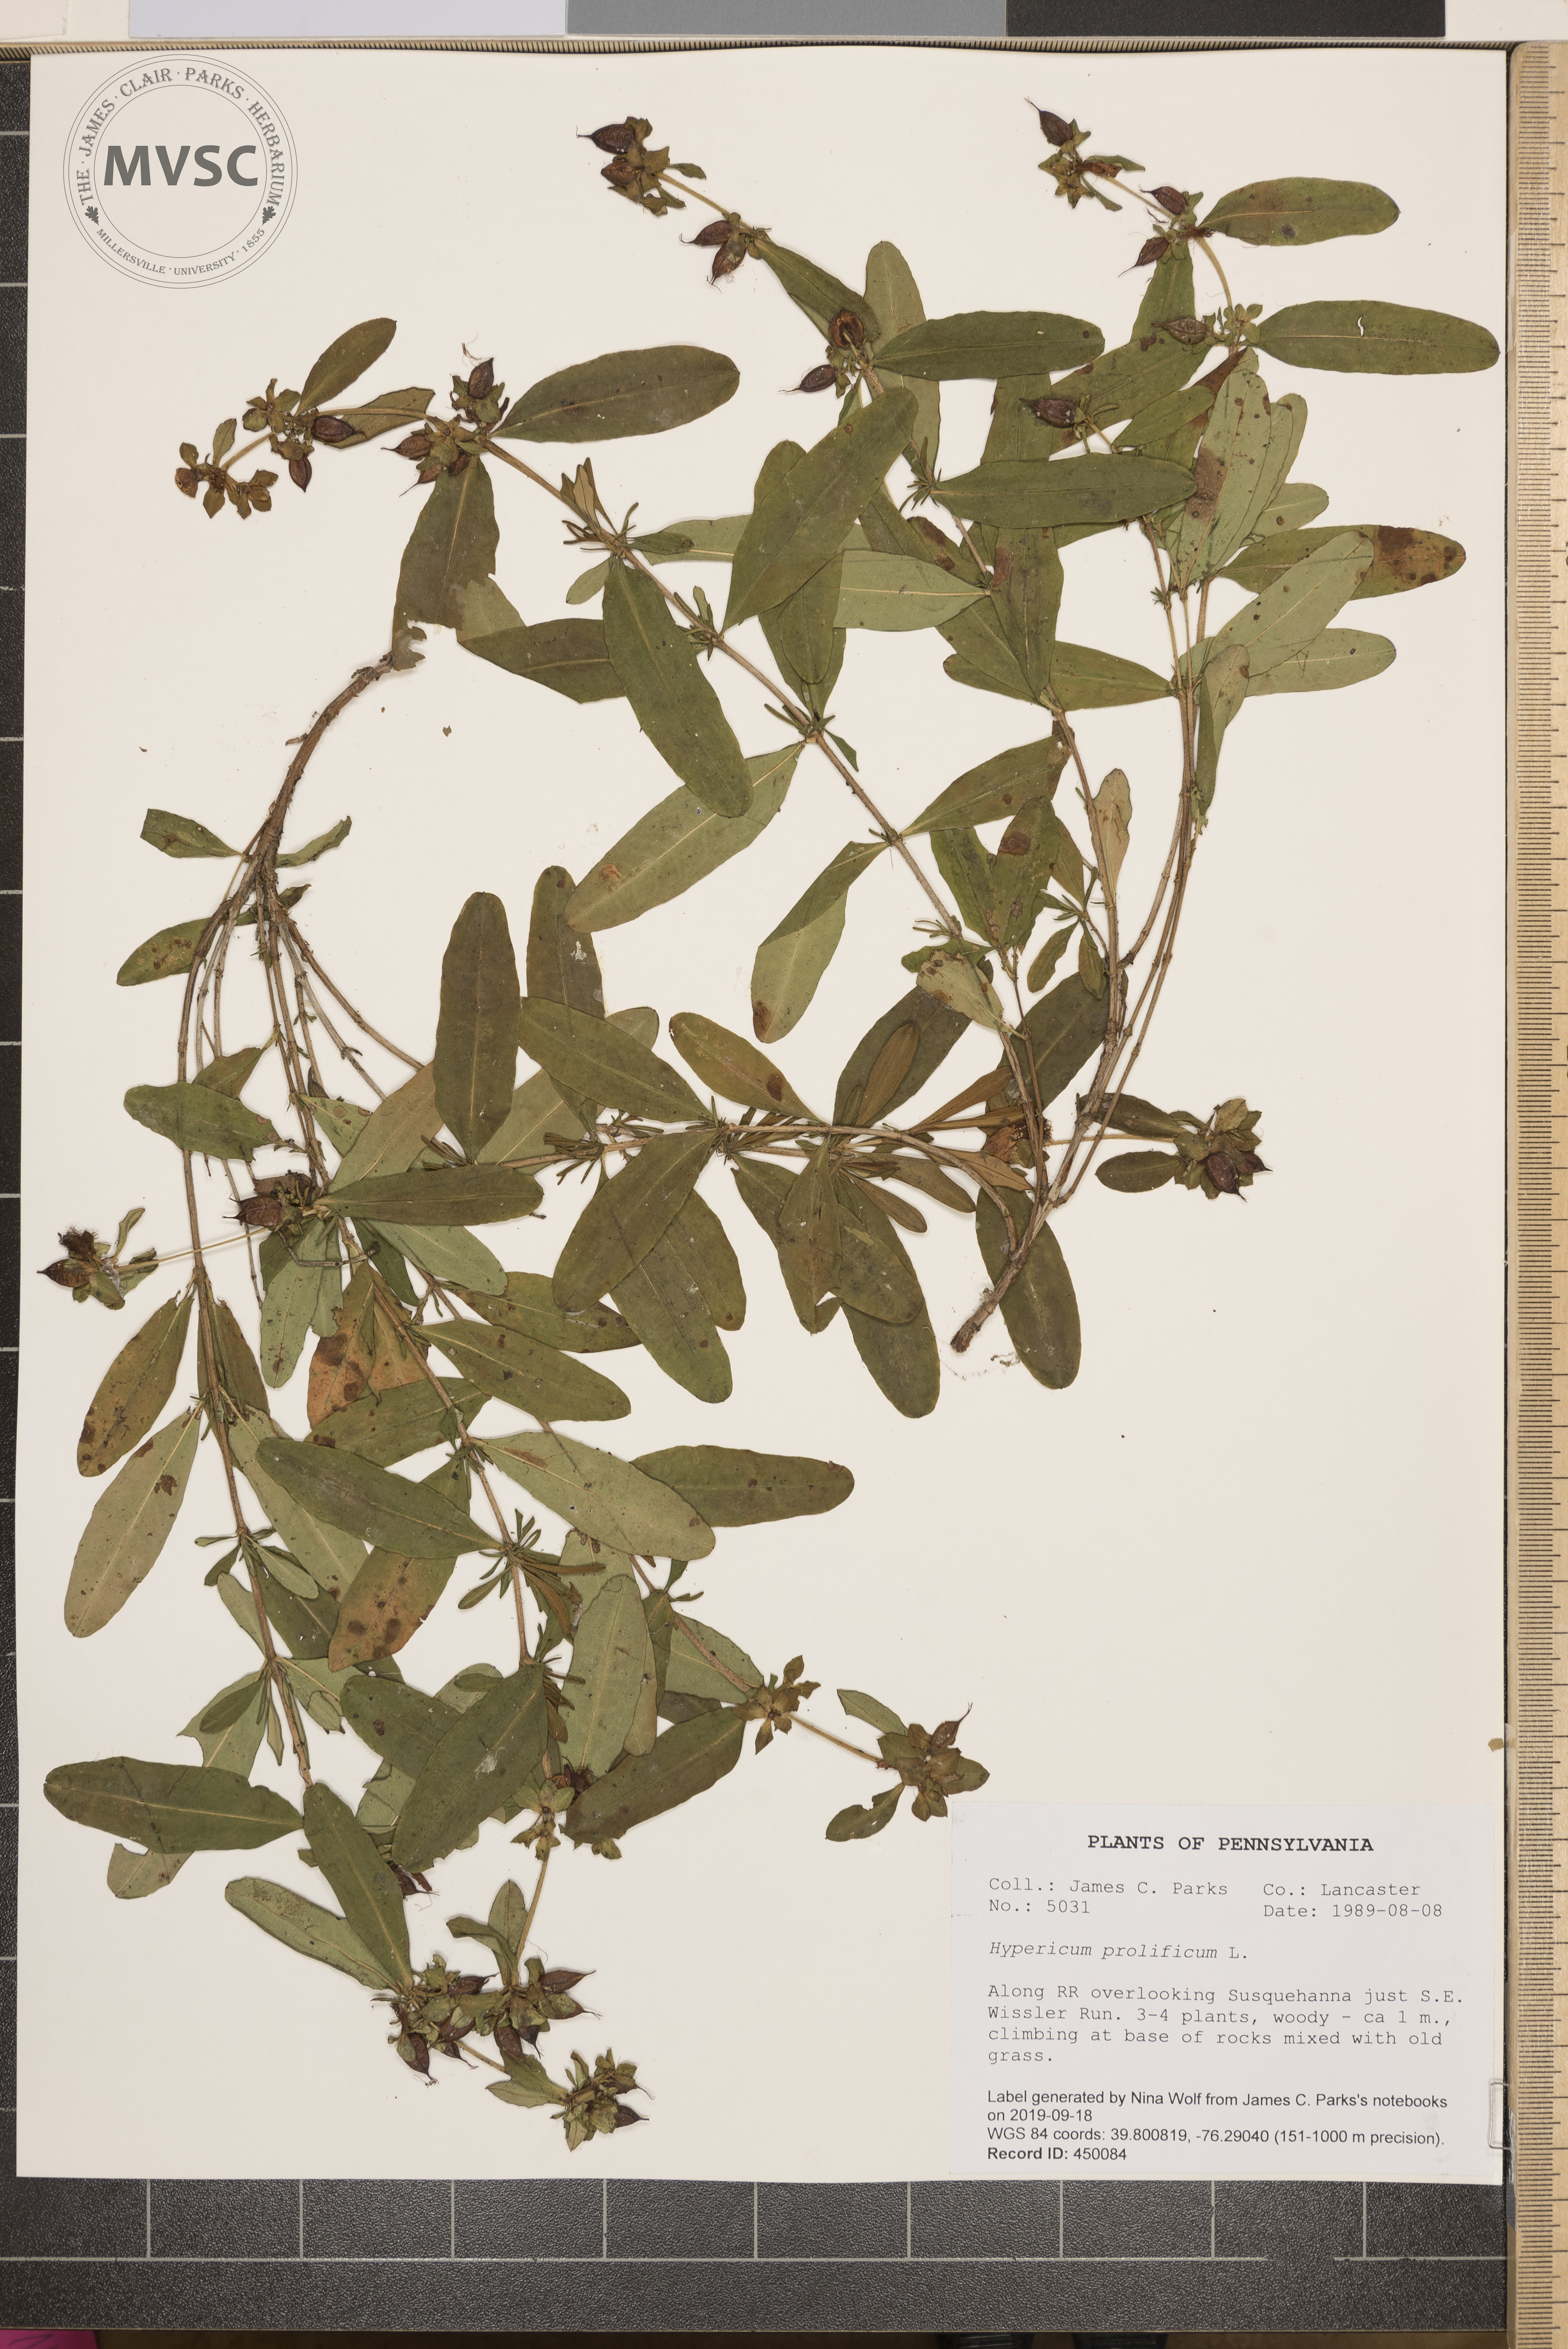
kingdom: Plantae
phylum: Tracheophyta
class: Magnoliopsida
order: Malpighiales
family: Hypericaceae
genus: Hypericum
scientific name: Hypericum prolificum
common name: Shrubby st. john's-wort
